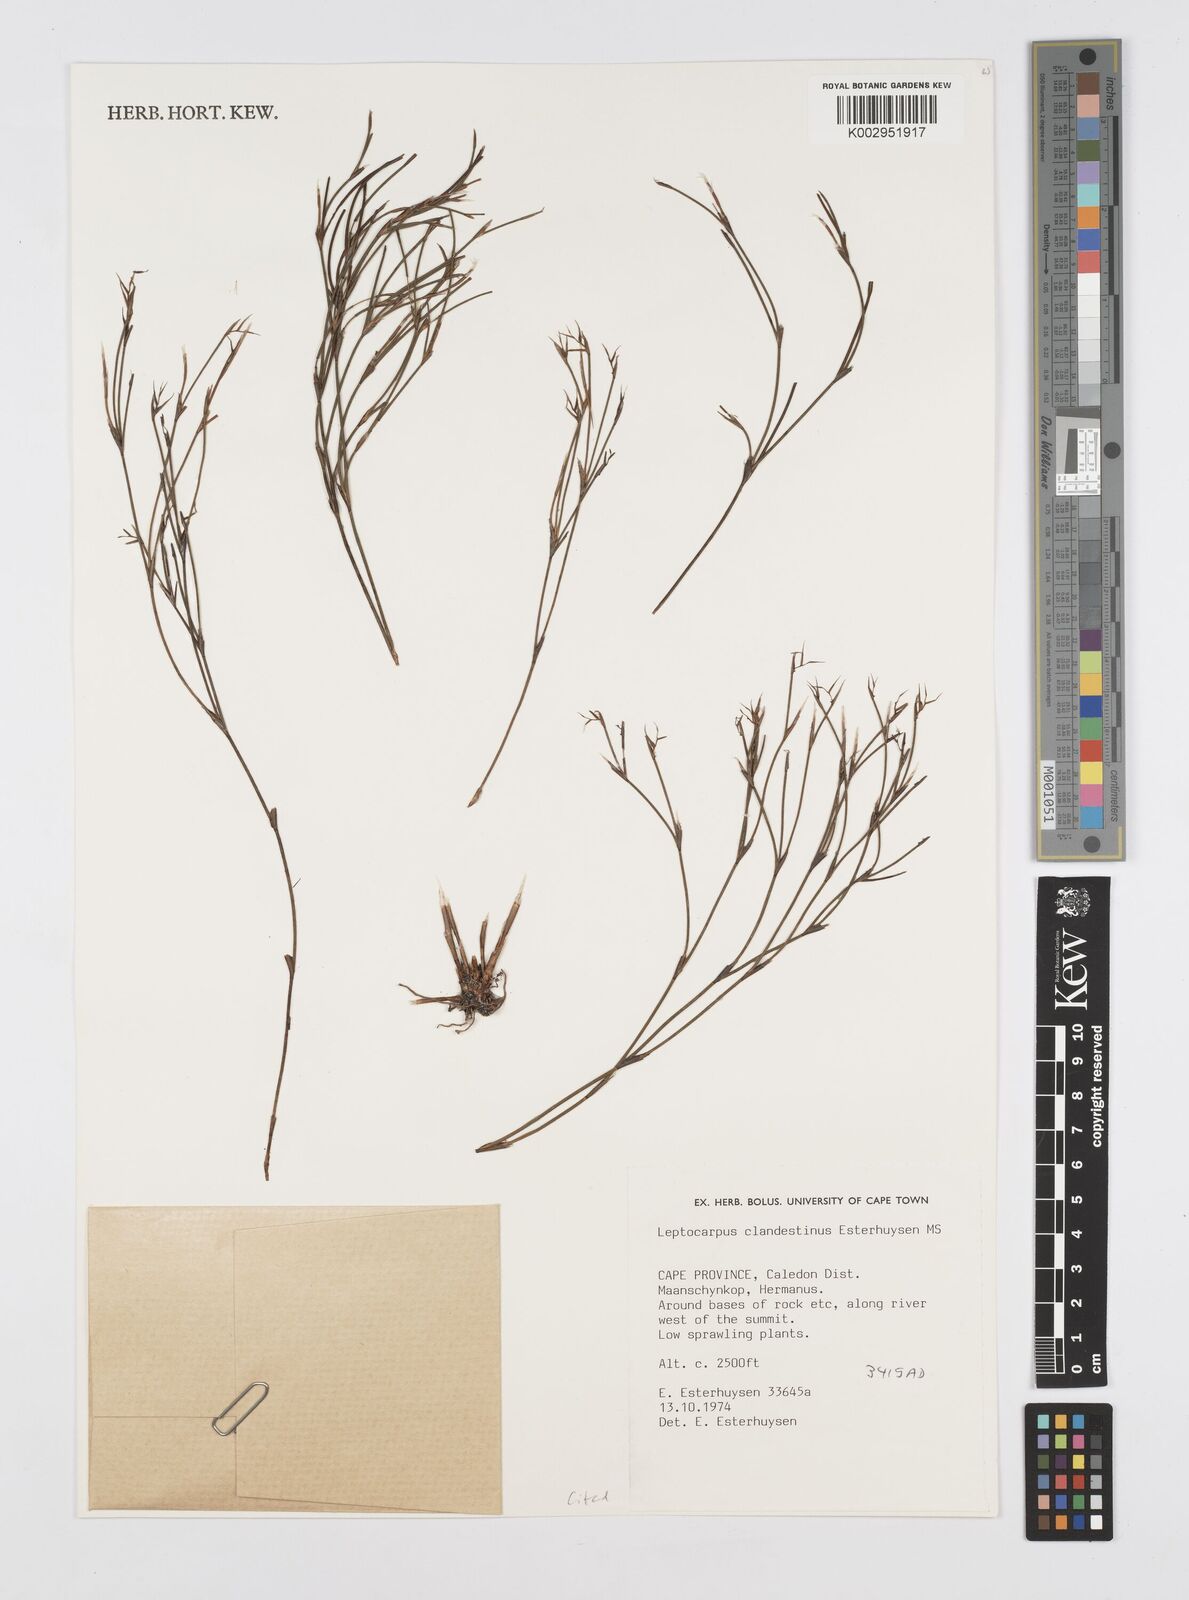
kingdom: Plantae
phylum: Tracheophyta
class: Liliopsida
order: Poales
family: Restionaceae
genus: Restio
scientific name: Restio clandestinus
